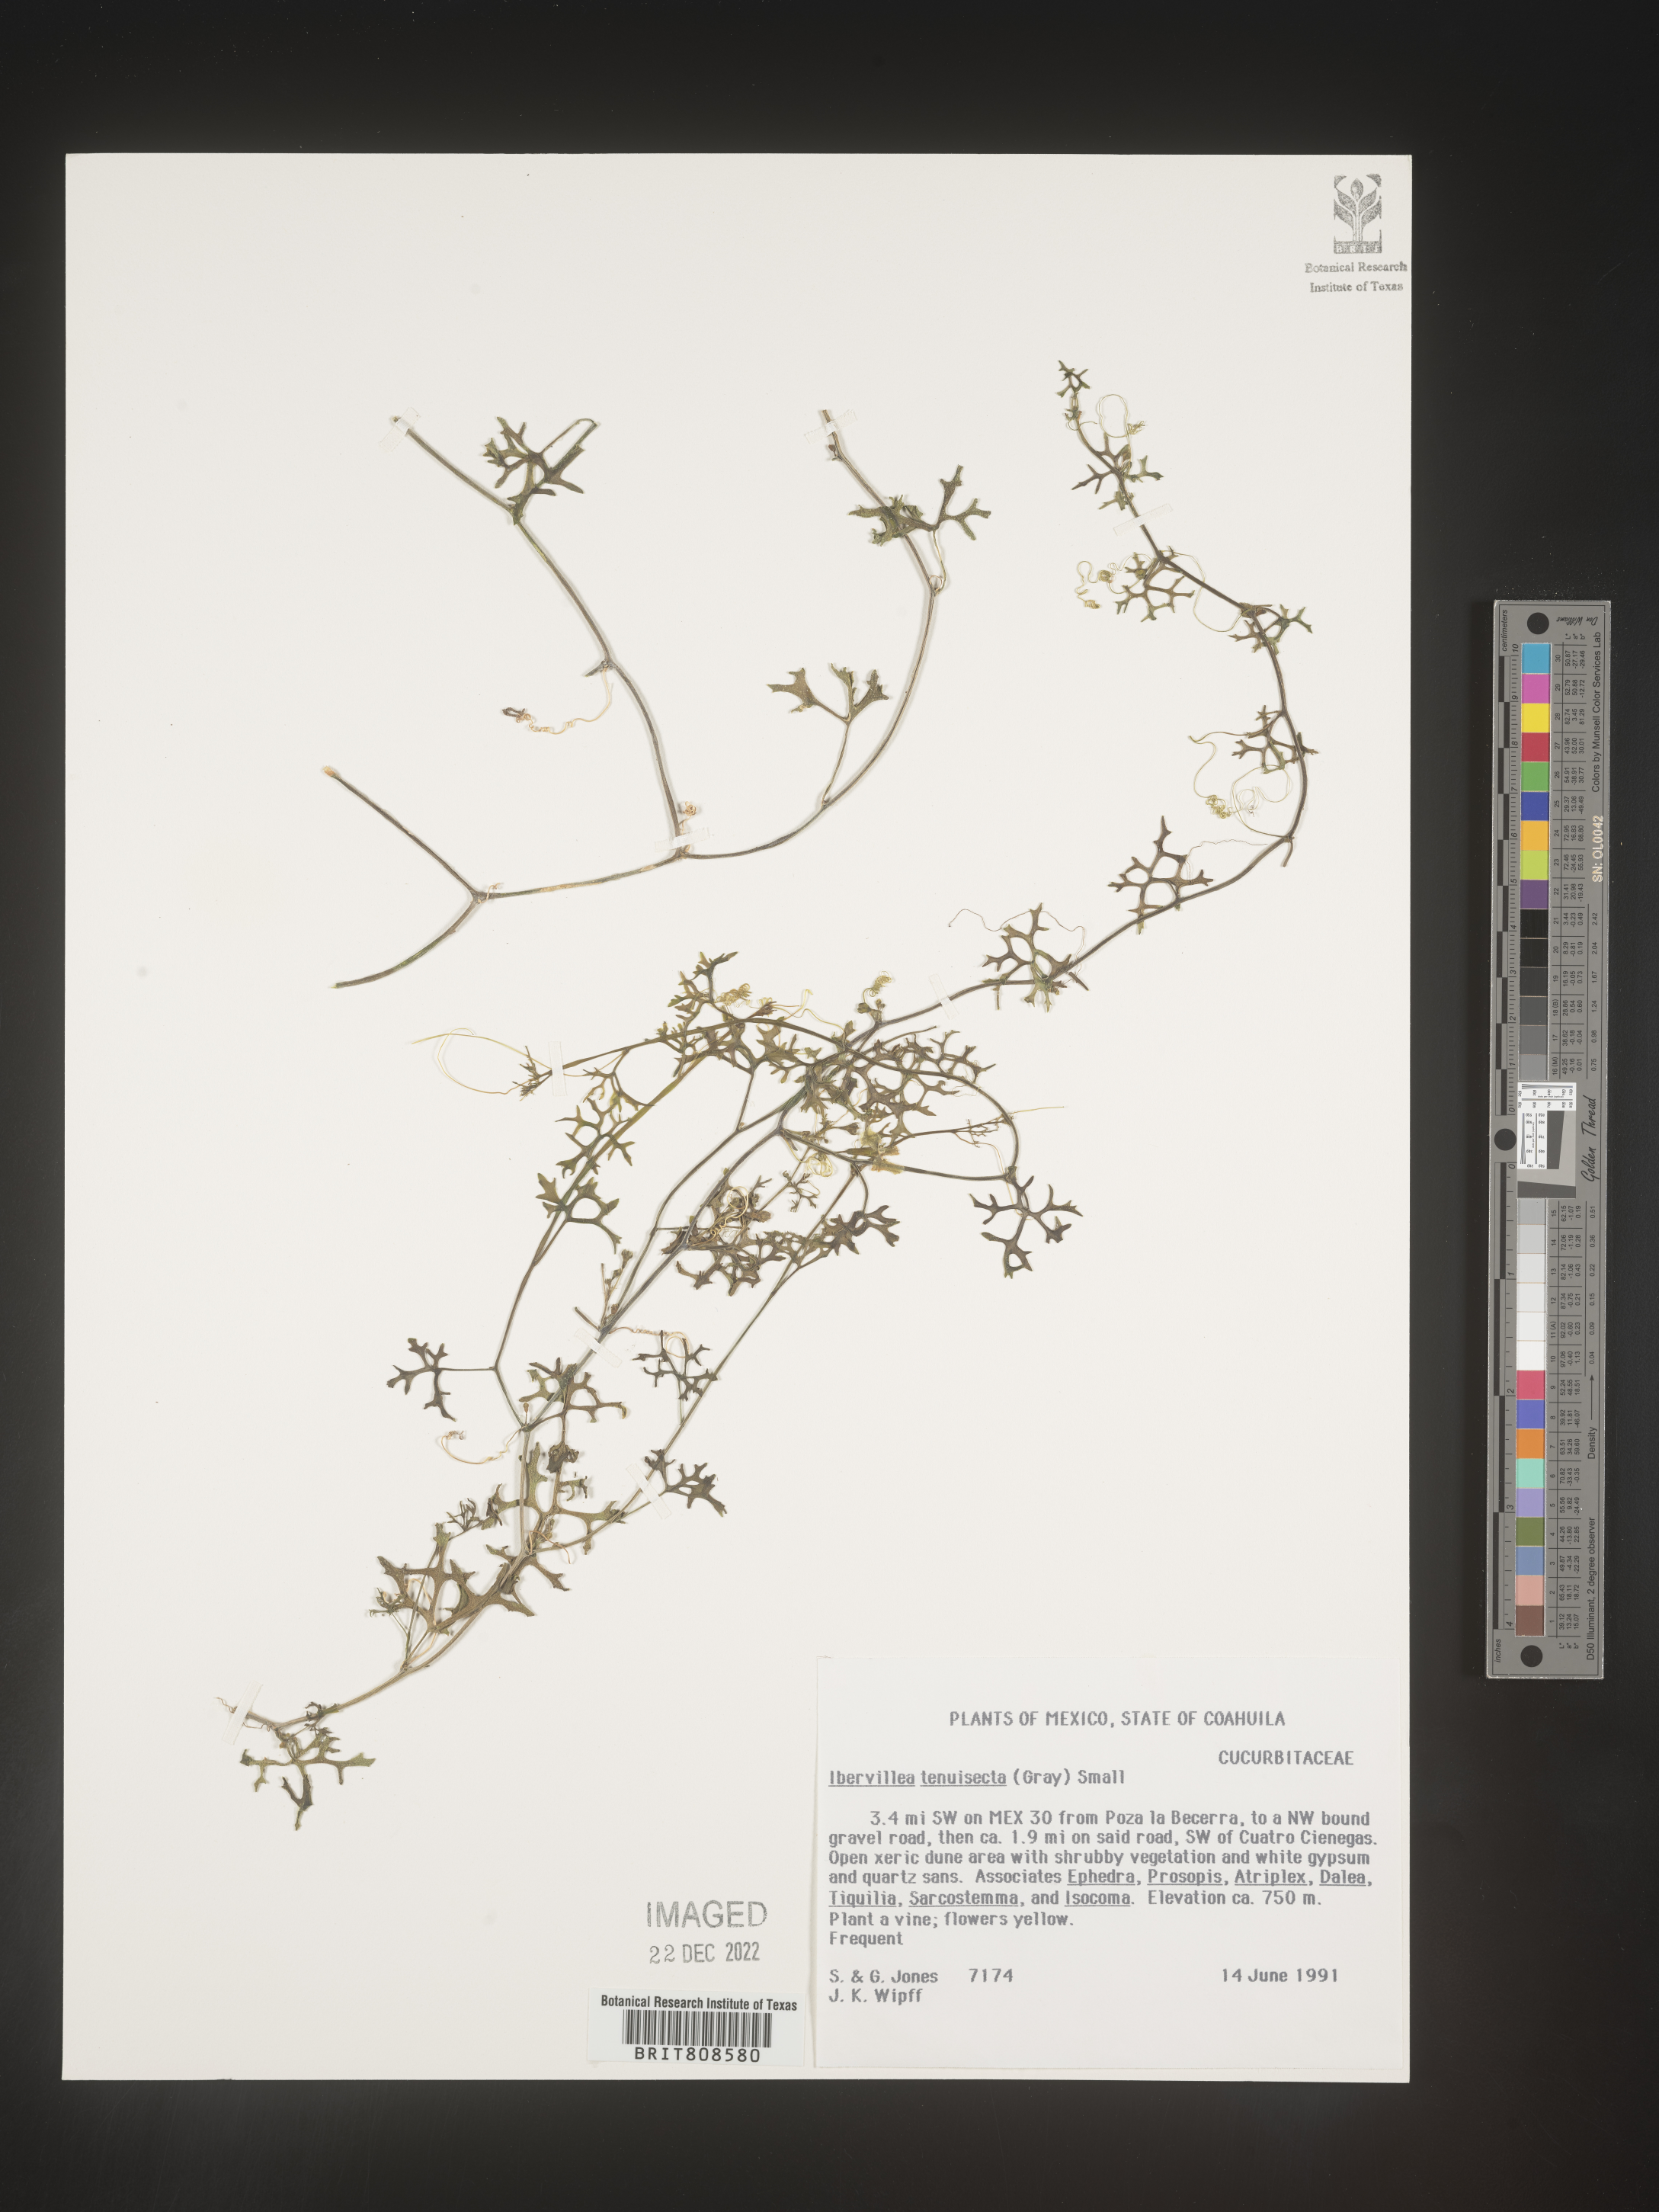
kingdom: Plantae
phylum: Tracheophyta
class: Magnoliopsida
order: Cucurbitales
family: Cucurbitaceae
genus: Ibervillea
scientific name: Ibervillea
